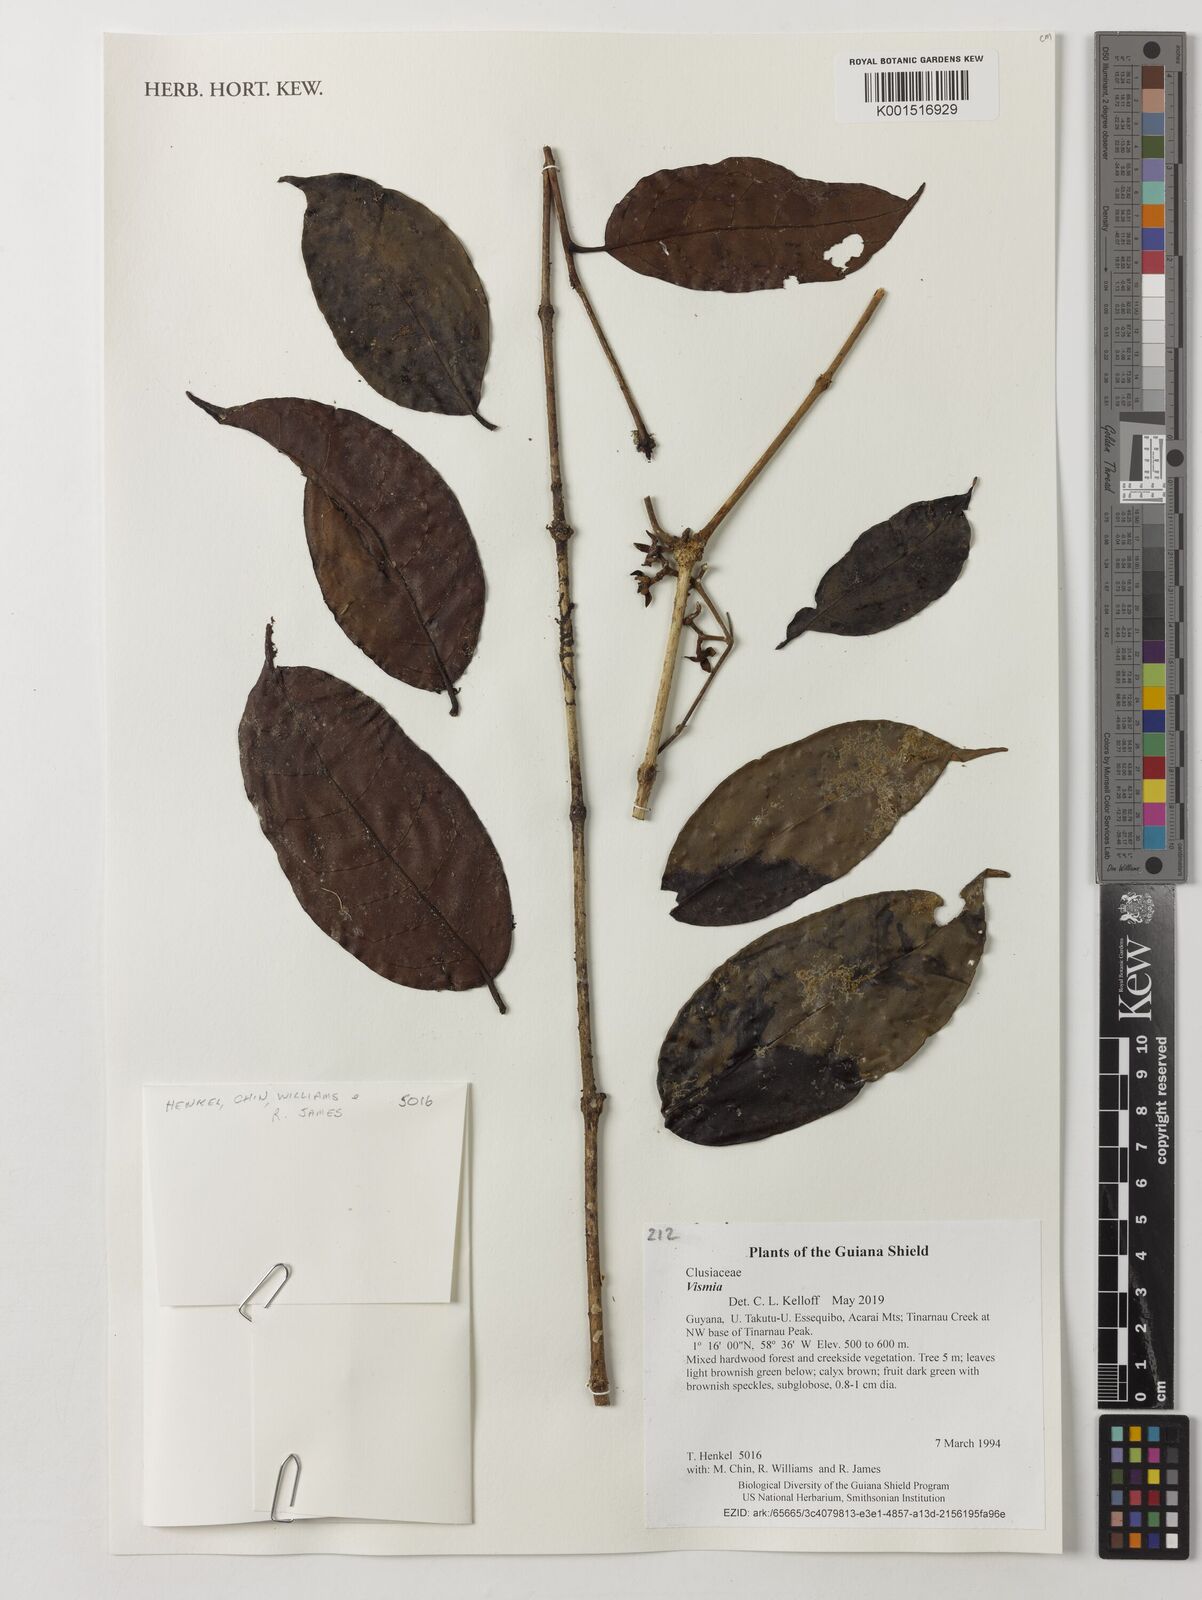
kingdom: Plantae
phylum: Tracheophyta
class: Magnoliopsida
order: Malpighiales
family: Hypericaceae
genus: Vismia
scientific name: Vismia
